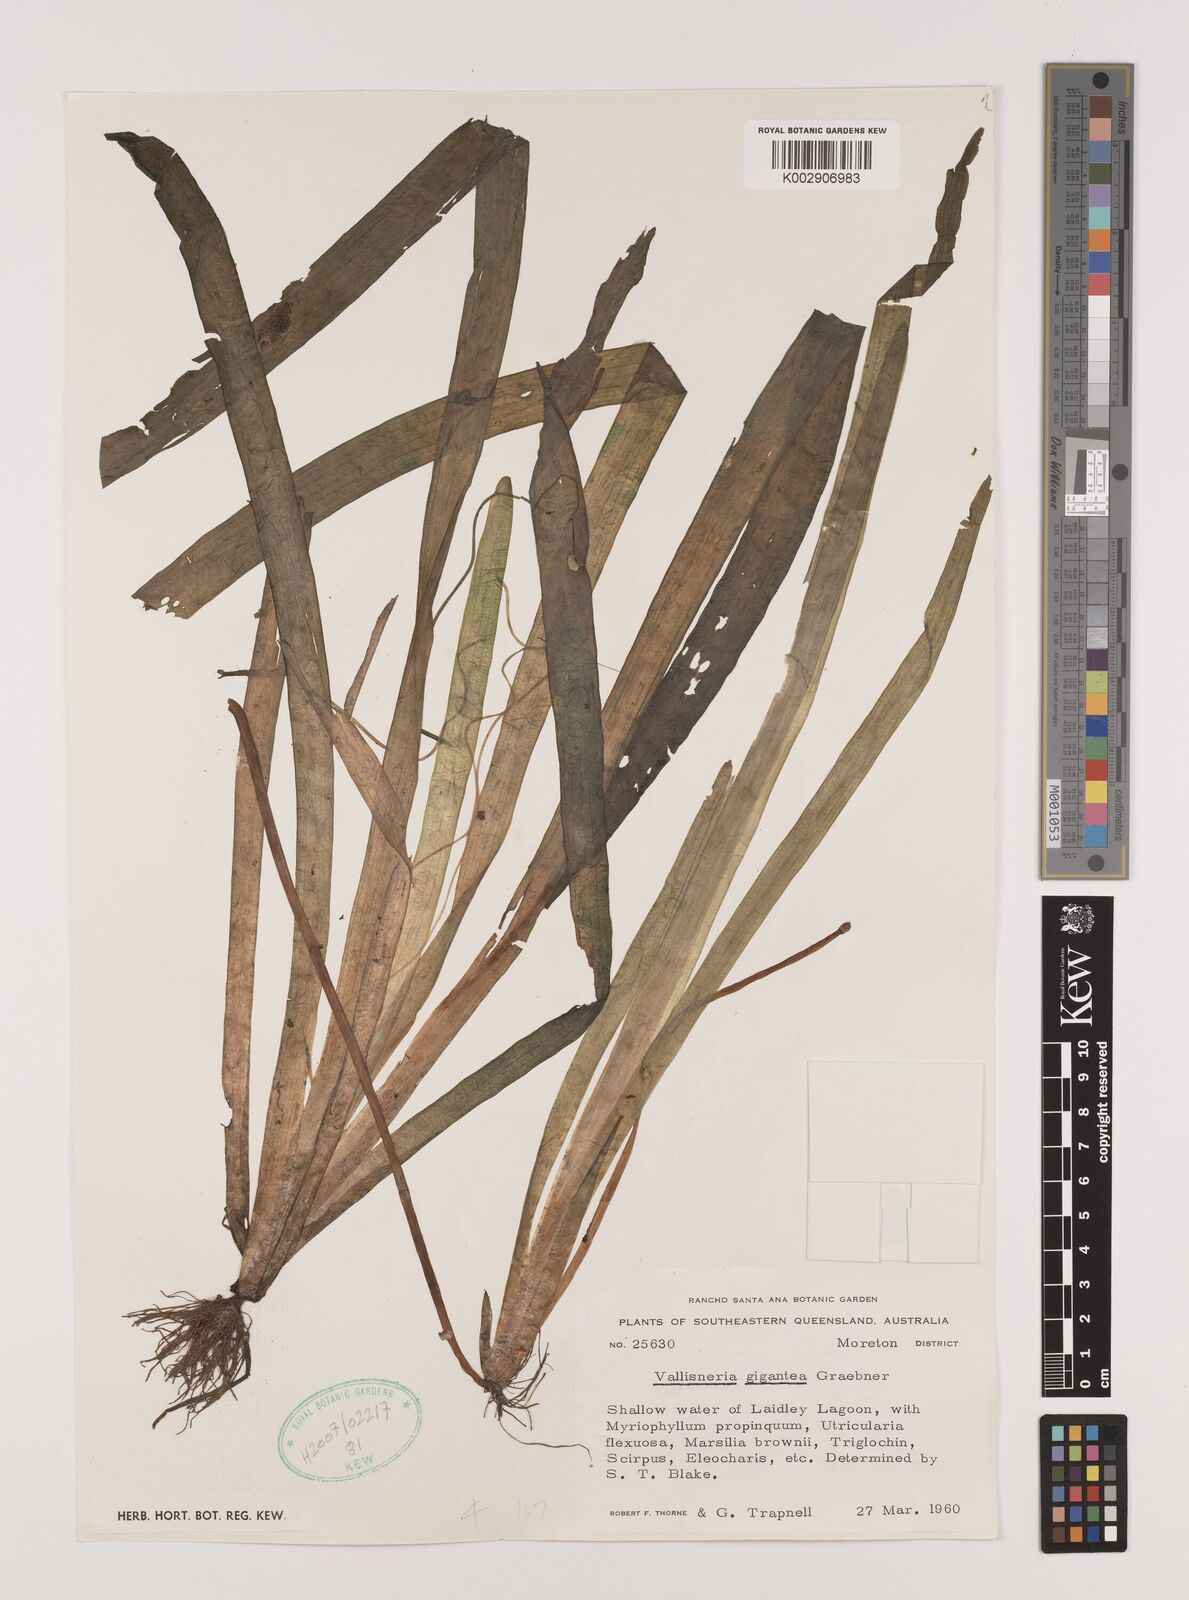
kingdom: Plantae
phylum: Tracheophyta
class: Liliopsida
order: Alismatales
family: Hydrocharitaceae
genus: Vallisneria
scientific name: Vallisneria nana
